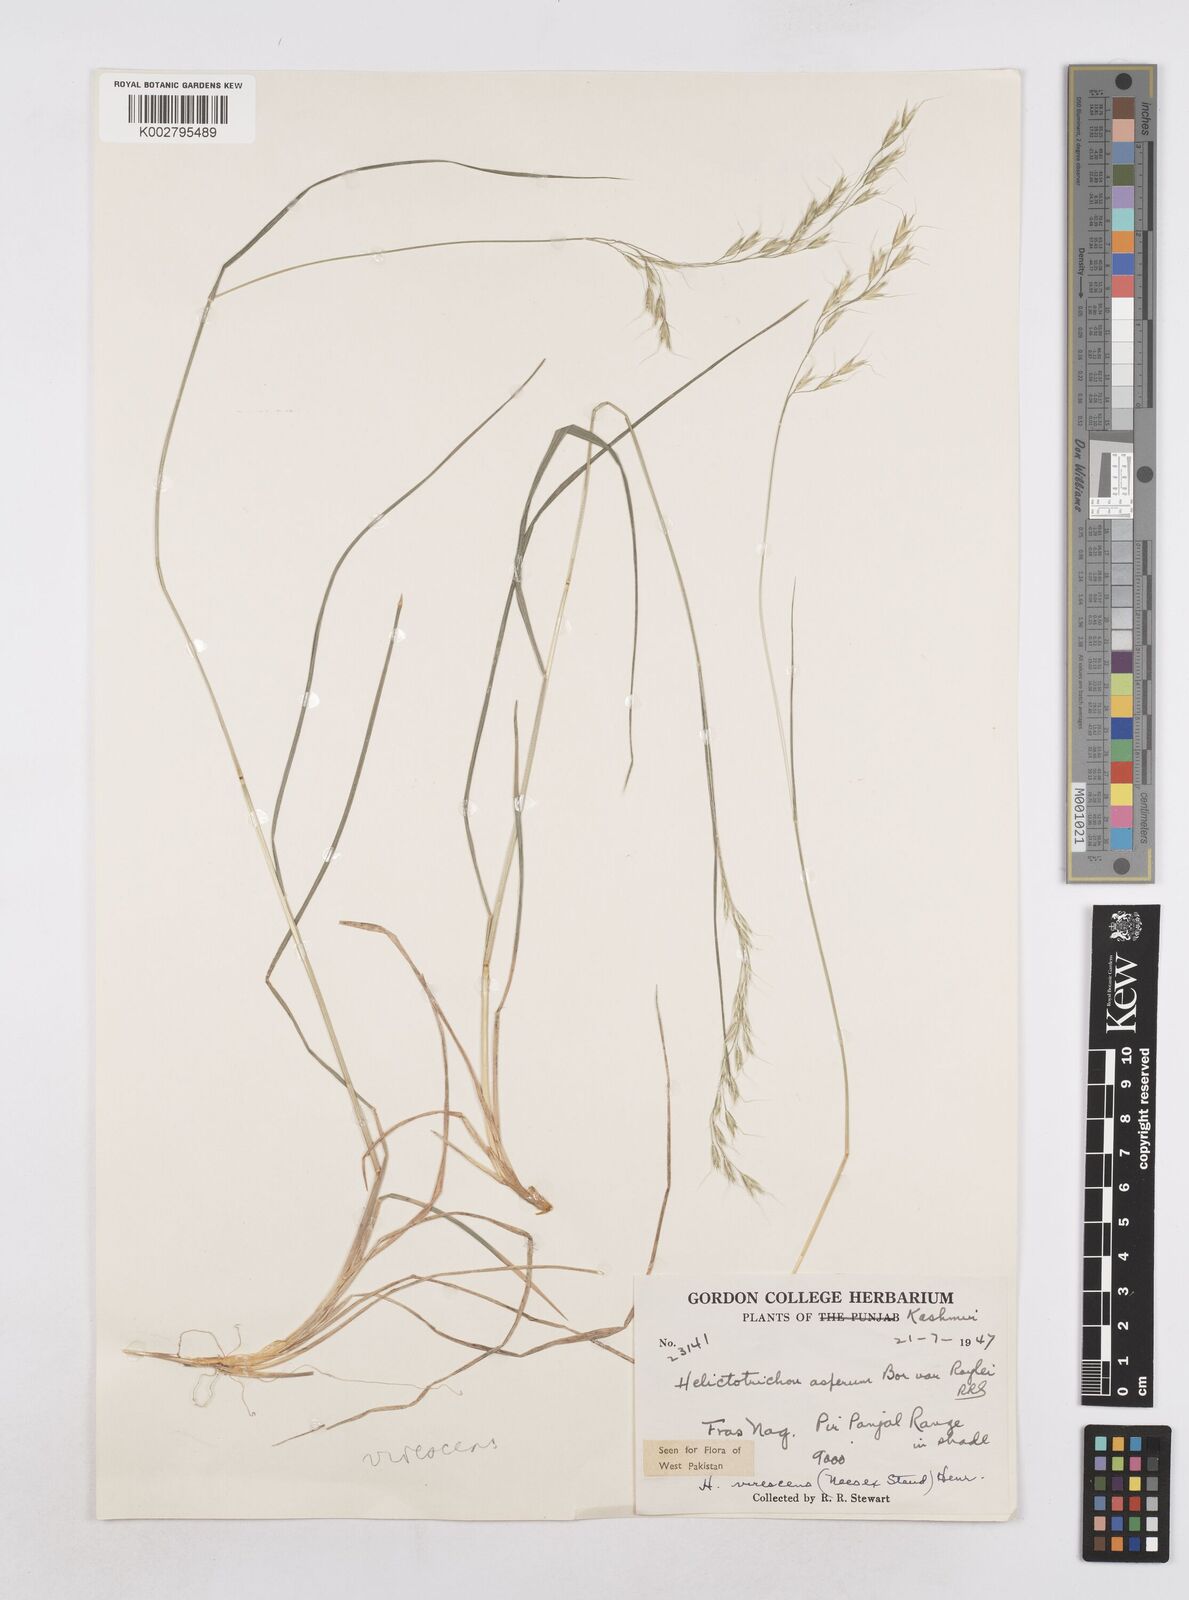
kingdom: Plantae
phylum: Tracheophyta
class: Liliopsida
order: Poales
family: Poaceae
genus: Trisetopsis
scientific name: Trisetopsis junghuhnii
